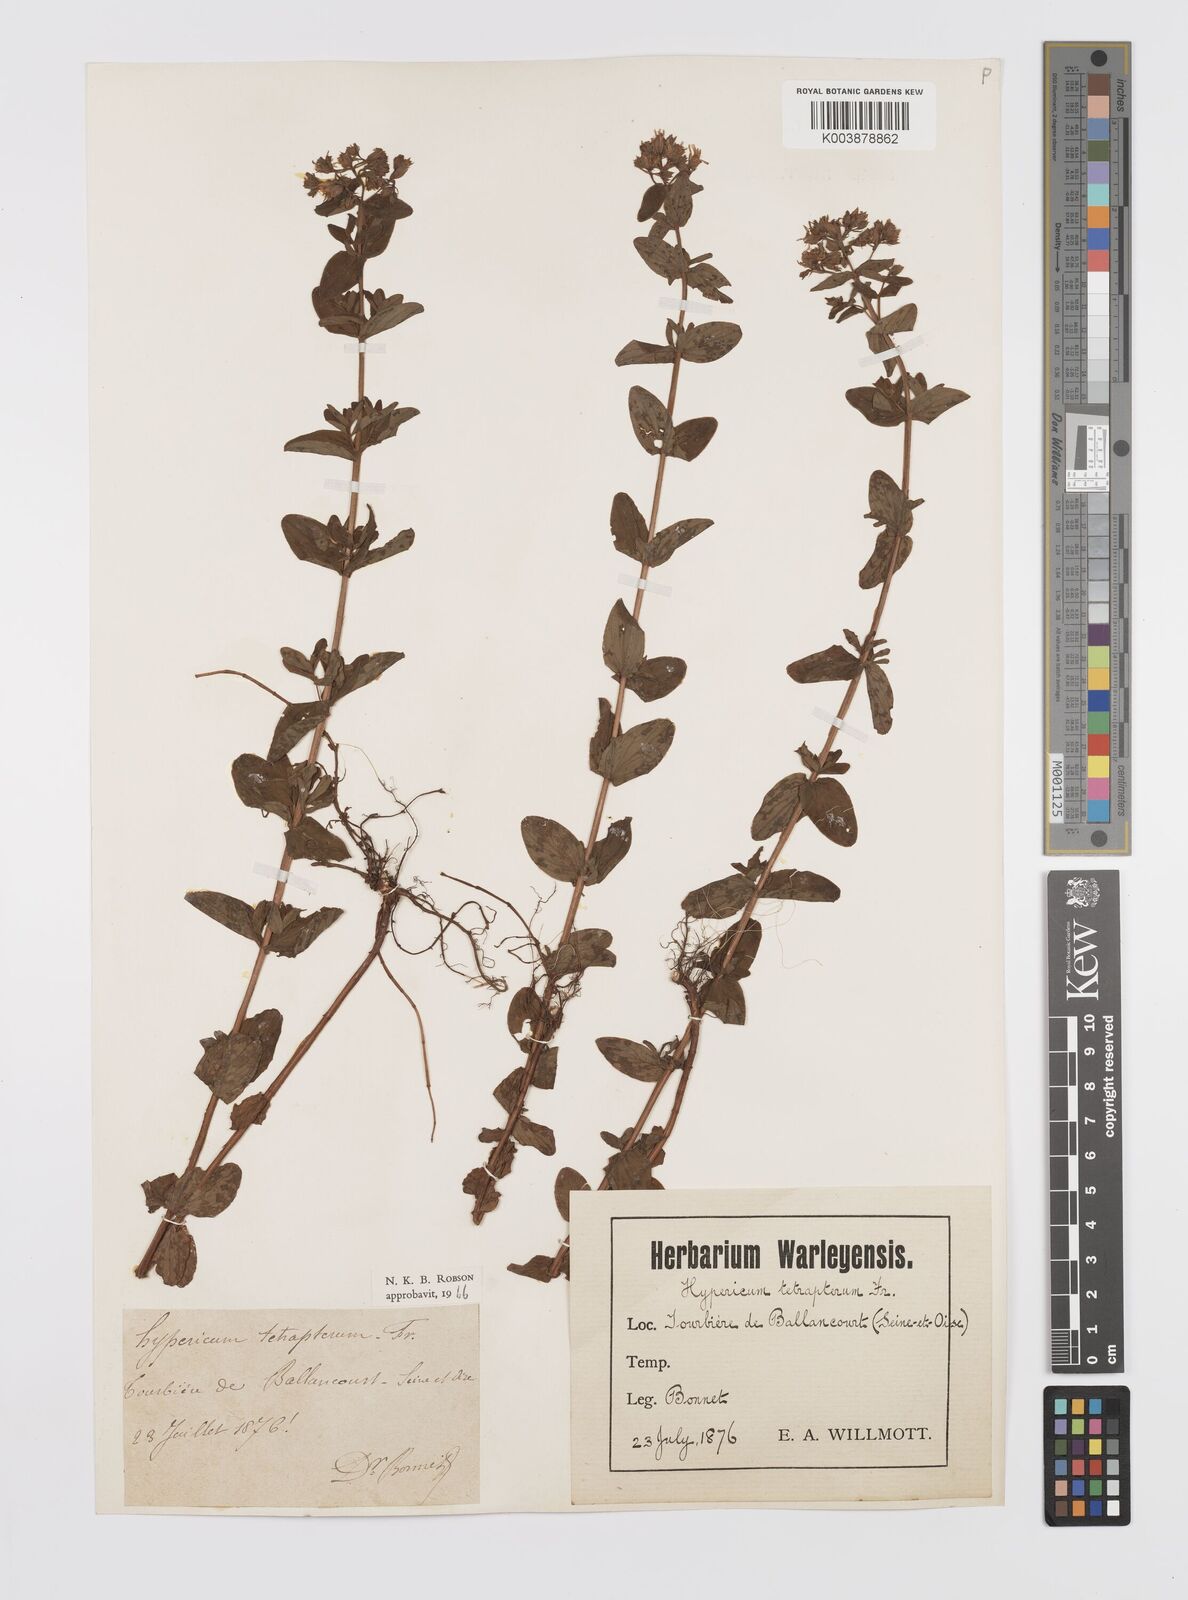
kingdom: Plantae
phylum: Tracheophyta
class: Magnoliopsida
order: Malpighiales
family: Hypericaceae
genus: Hypericum
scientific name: Hypericum tetrapterum
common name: Square-stalked st. john's-wort
